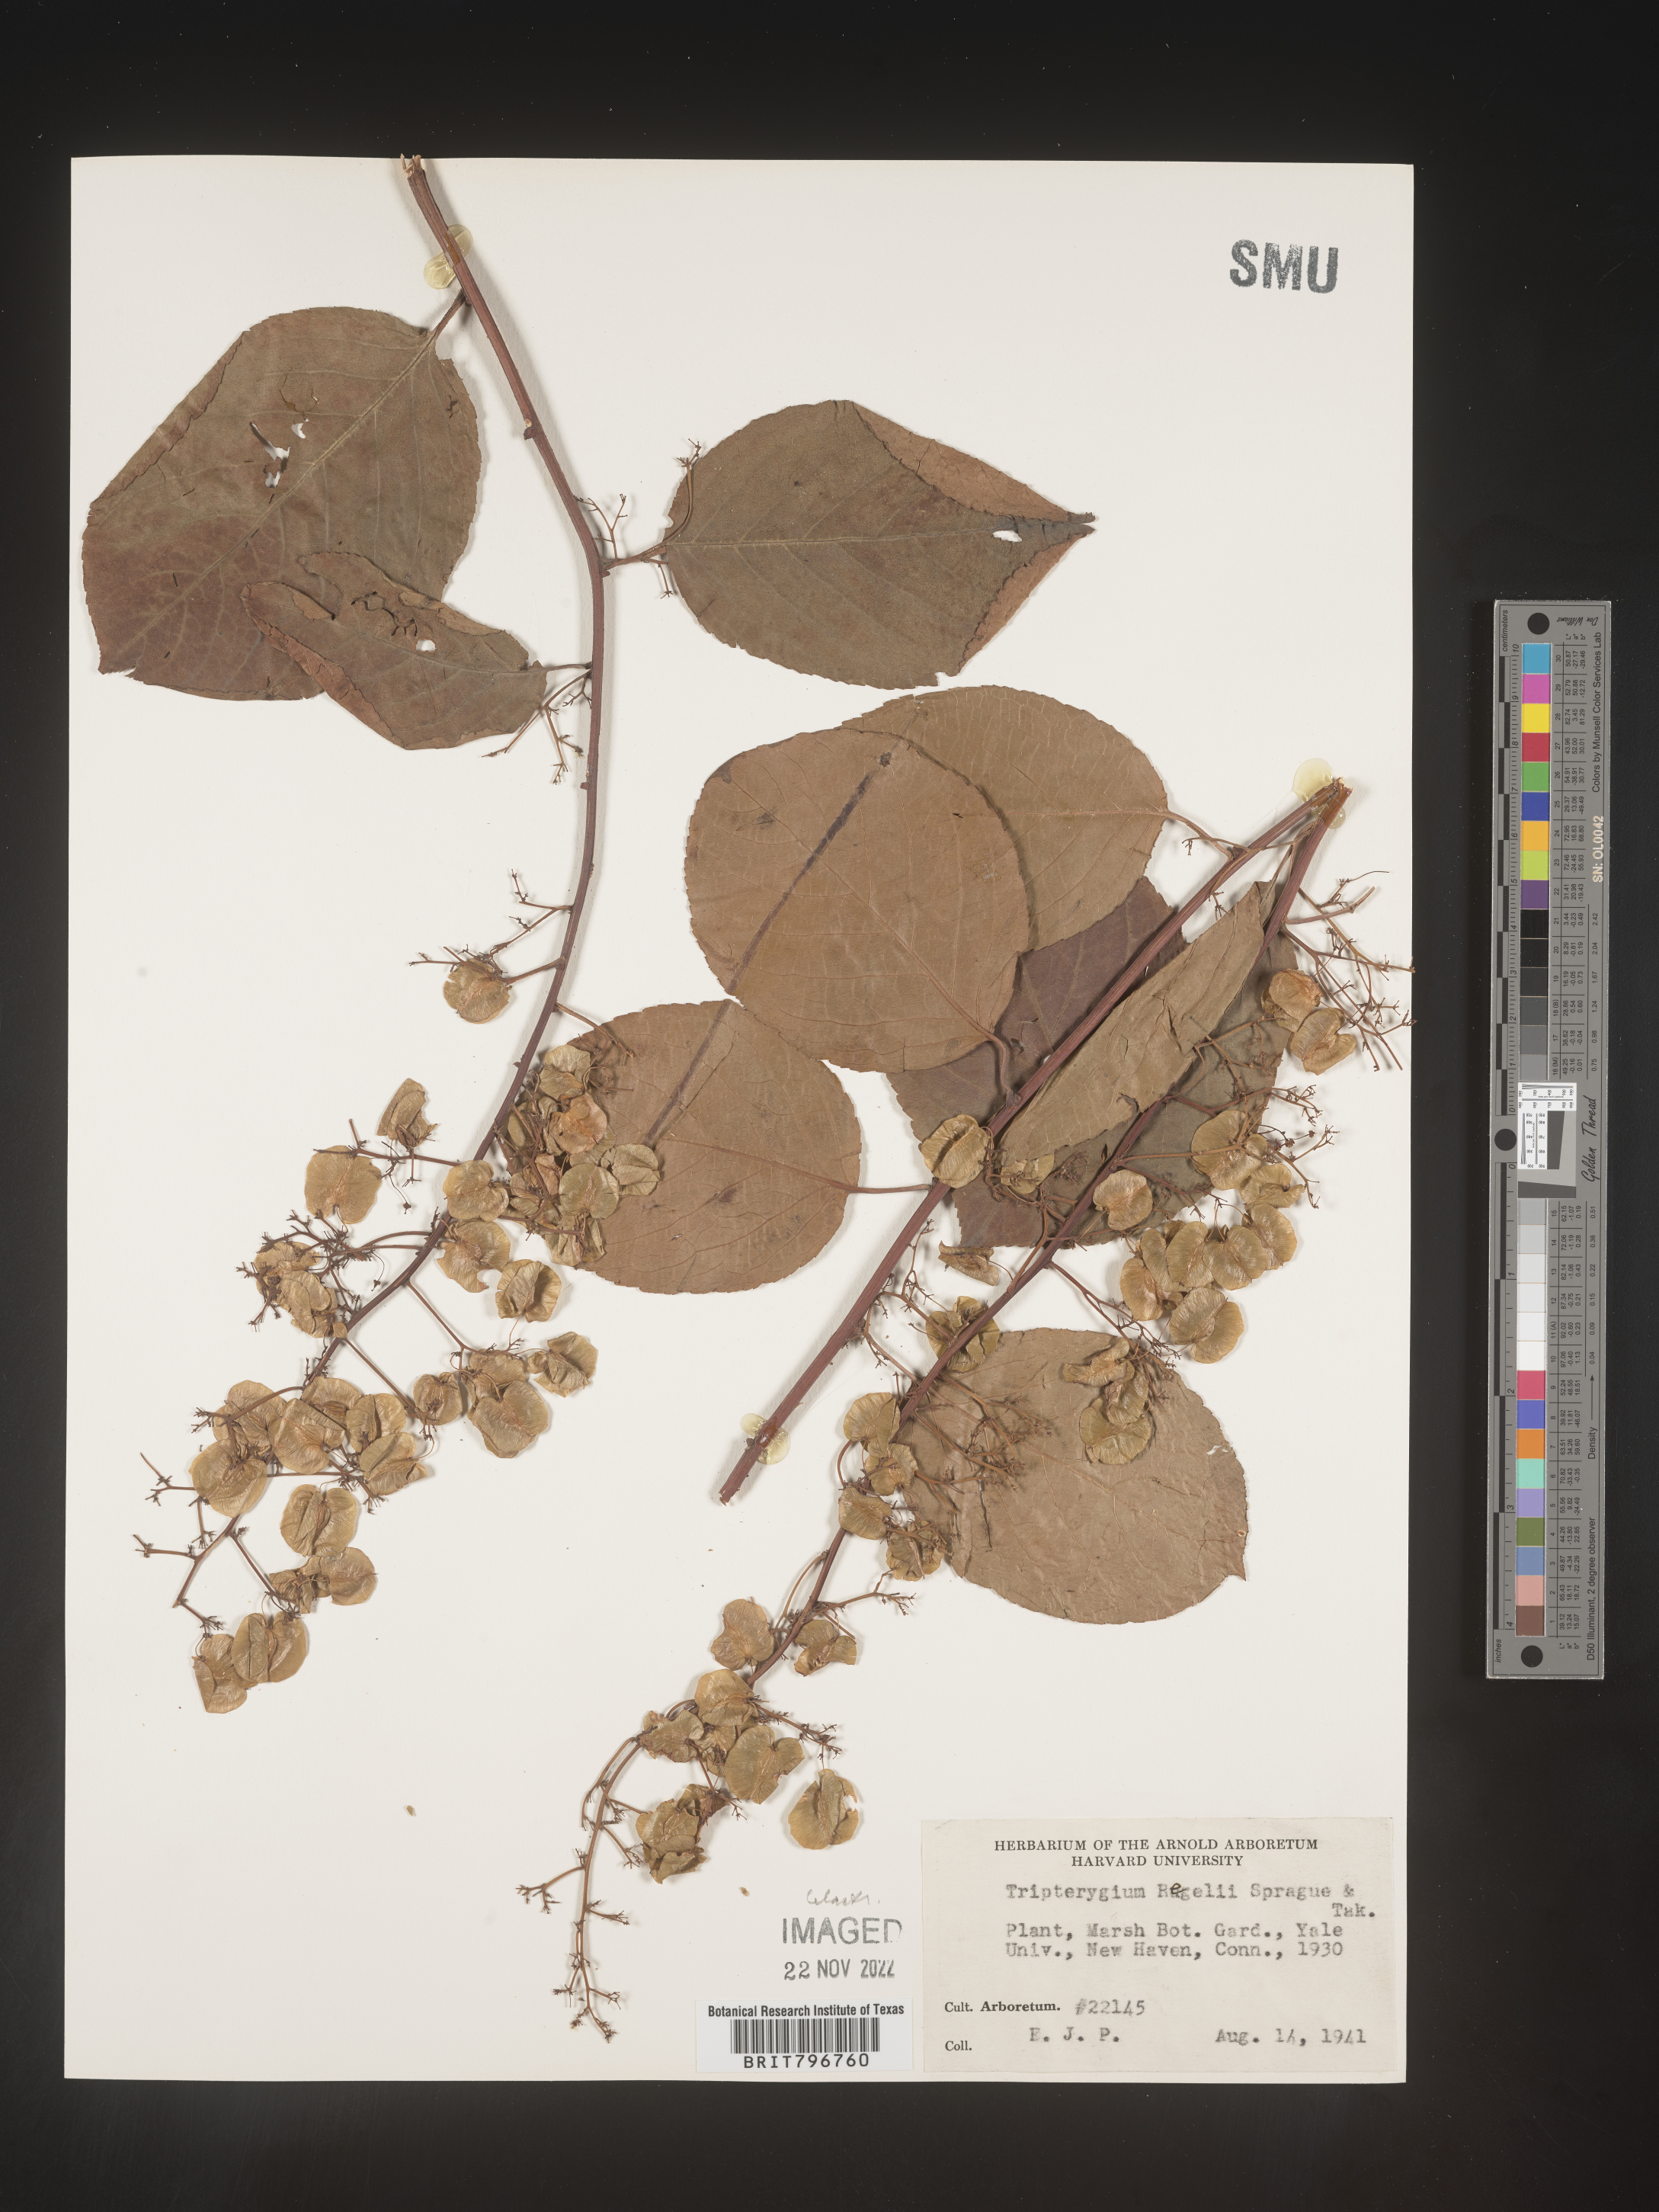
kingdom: Plantae
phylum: Tracheophyta
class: Magnoliopsida
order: Celastrales
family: Celastraceae
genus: Tripterygium
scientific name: Tripterygium
